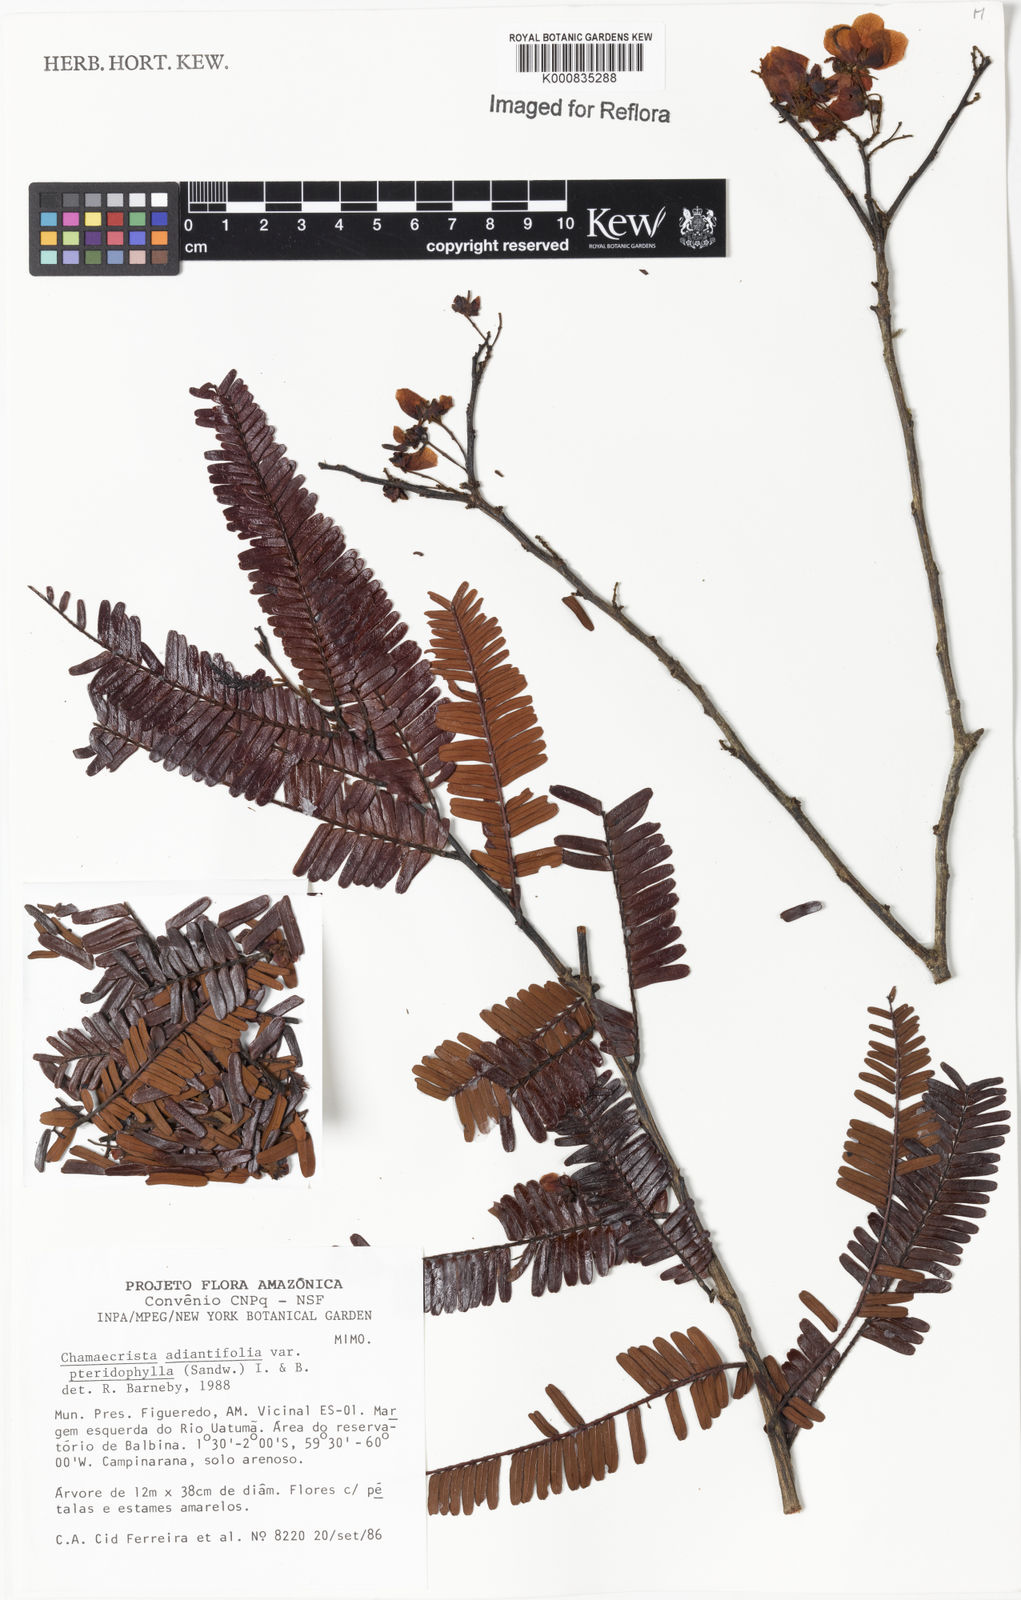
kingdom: Plantae
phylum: Tracheophyta
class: Magnoliopsida
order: Fabales
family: Fabaceae
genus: Chamaecrista
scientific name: Chamaecrista adiantifolia
